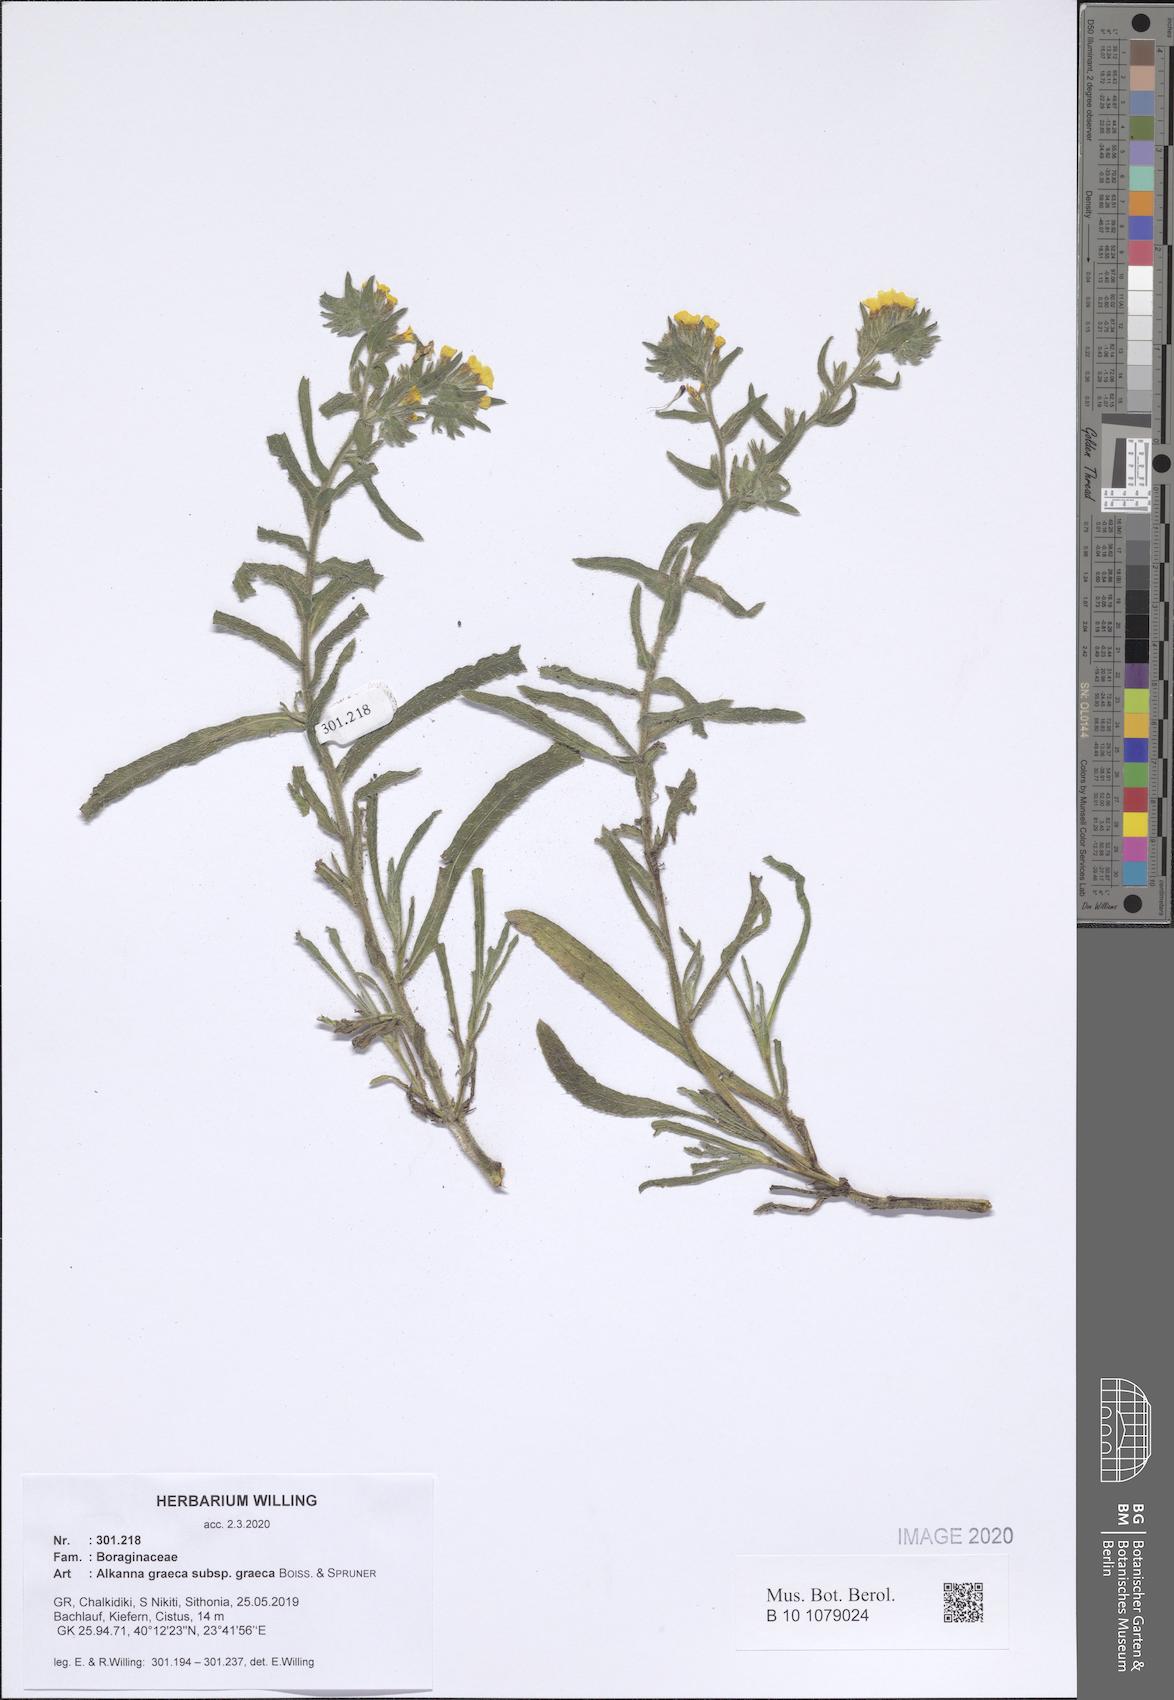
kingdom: Plantae
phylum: Tracheophyta
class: Magnoliopsida
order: Boraginales
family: Boraginaceae
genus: Alkanna
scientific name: Alkanna graeca
